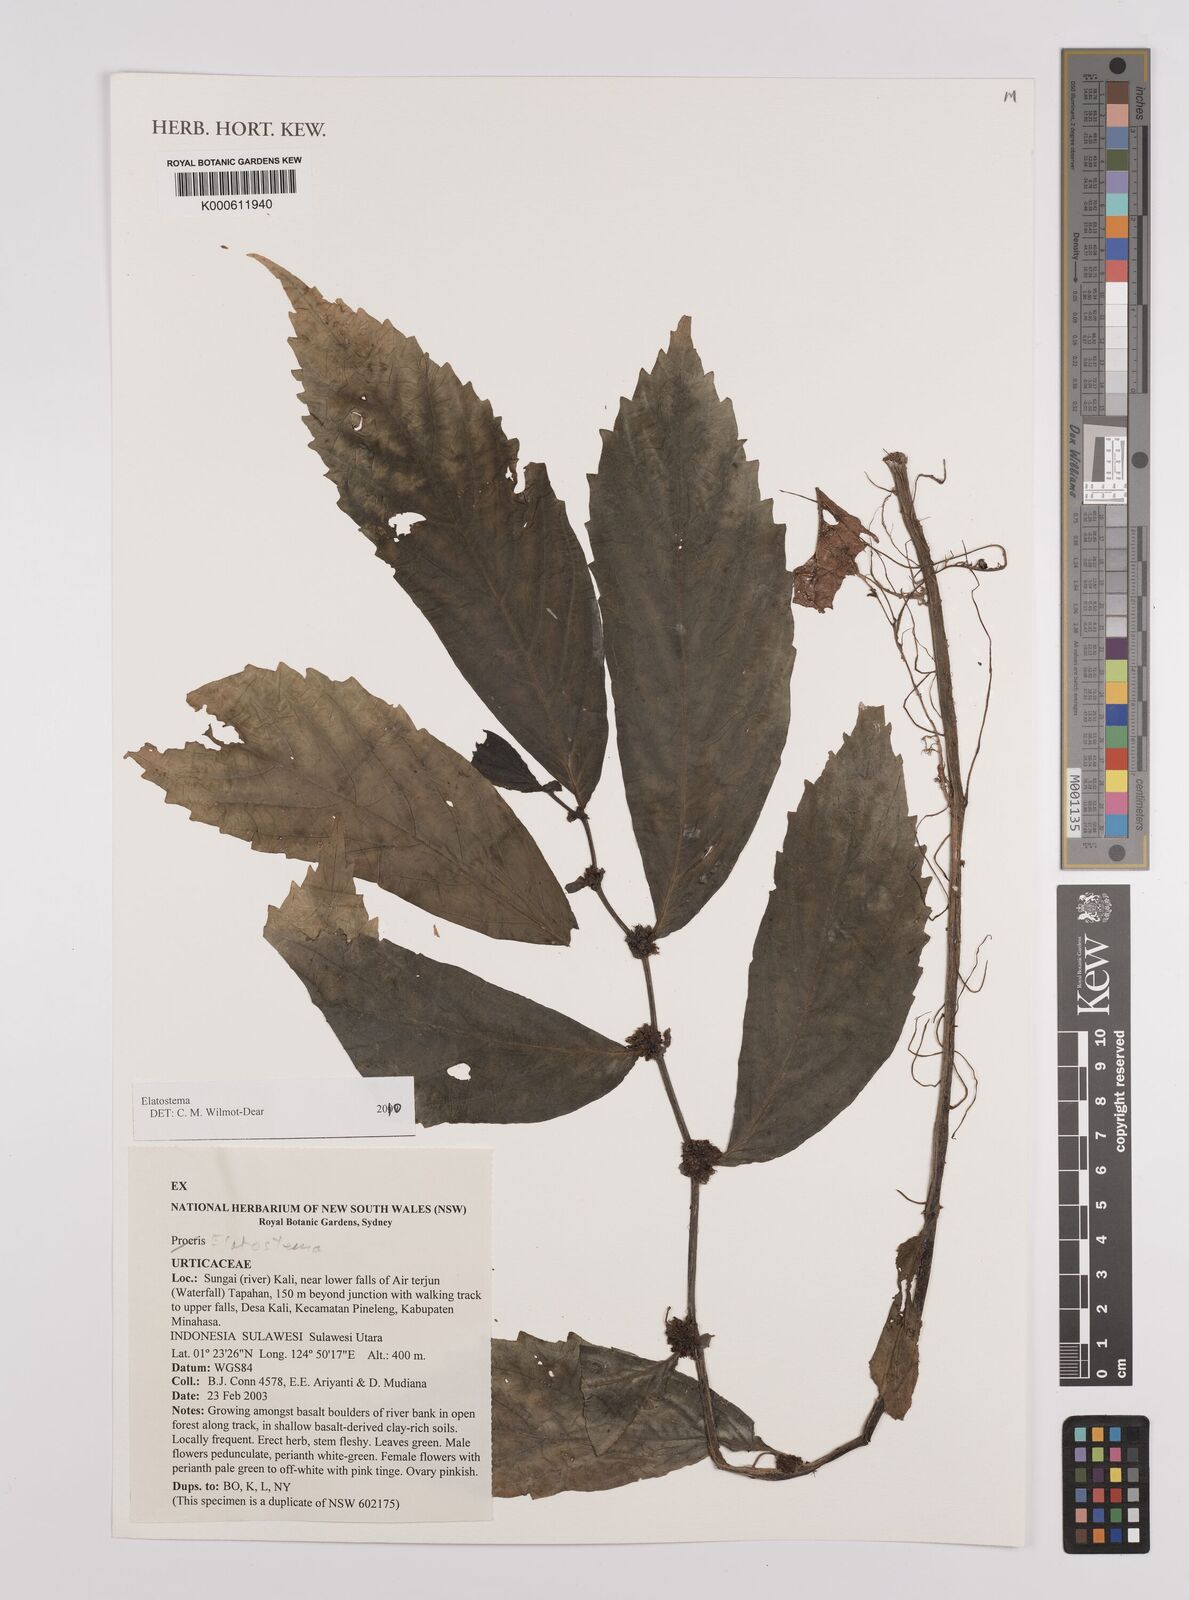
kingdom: Plantae
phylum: Tracheophyta
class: Magnoliopsida
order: Rosales
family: Urticaceae
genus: Elatostema
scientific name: Elatostema
